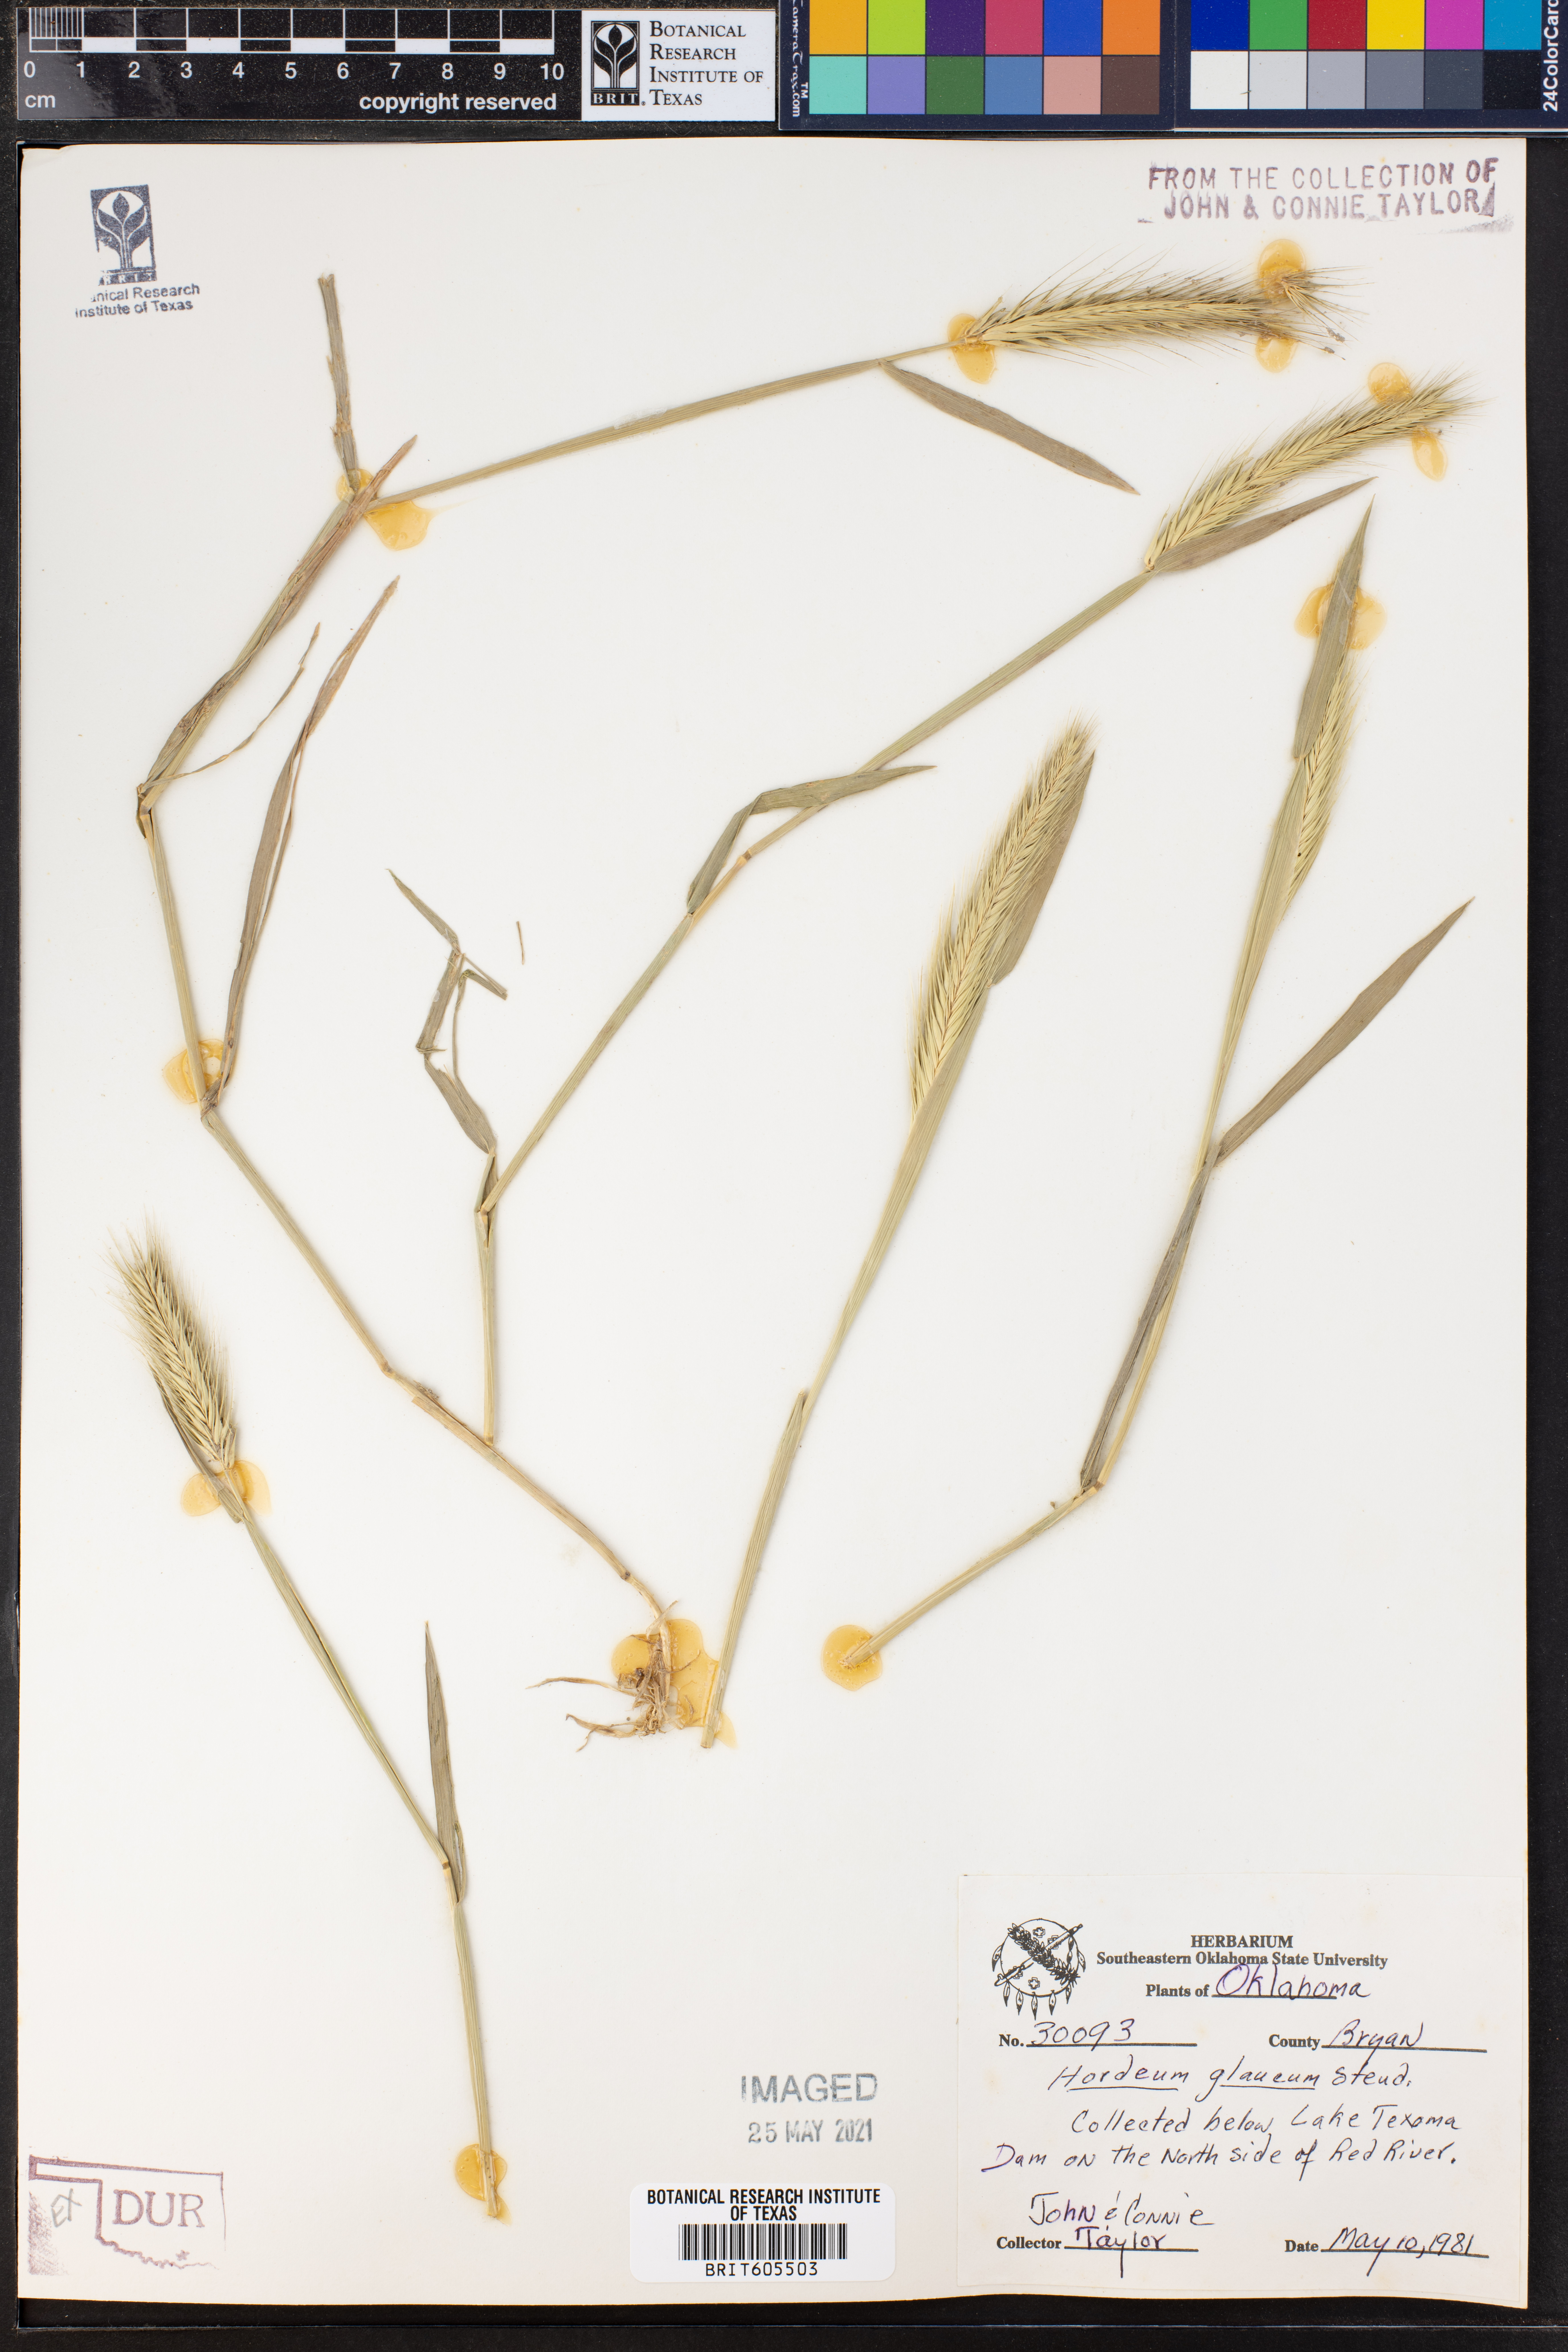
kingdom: Plantae
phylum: Tracheophyta
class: Liliopsida
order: Poales
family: Poaceae
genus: Hordeum
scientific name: Hordeum murinum
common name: Wall barley
